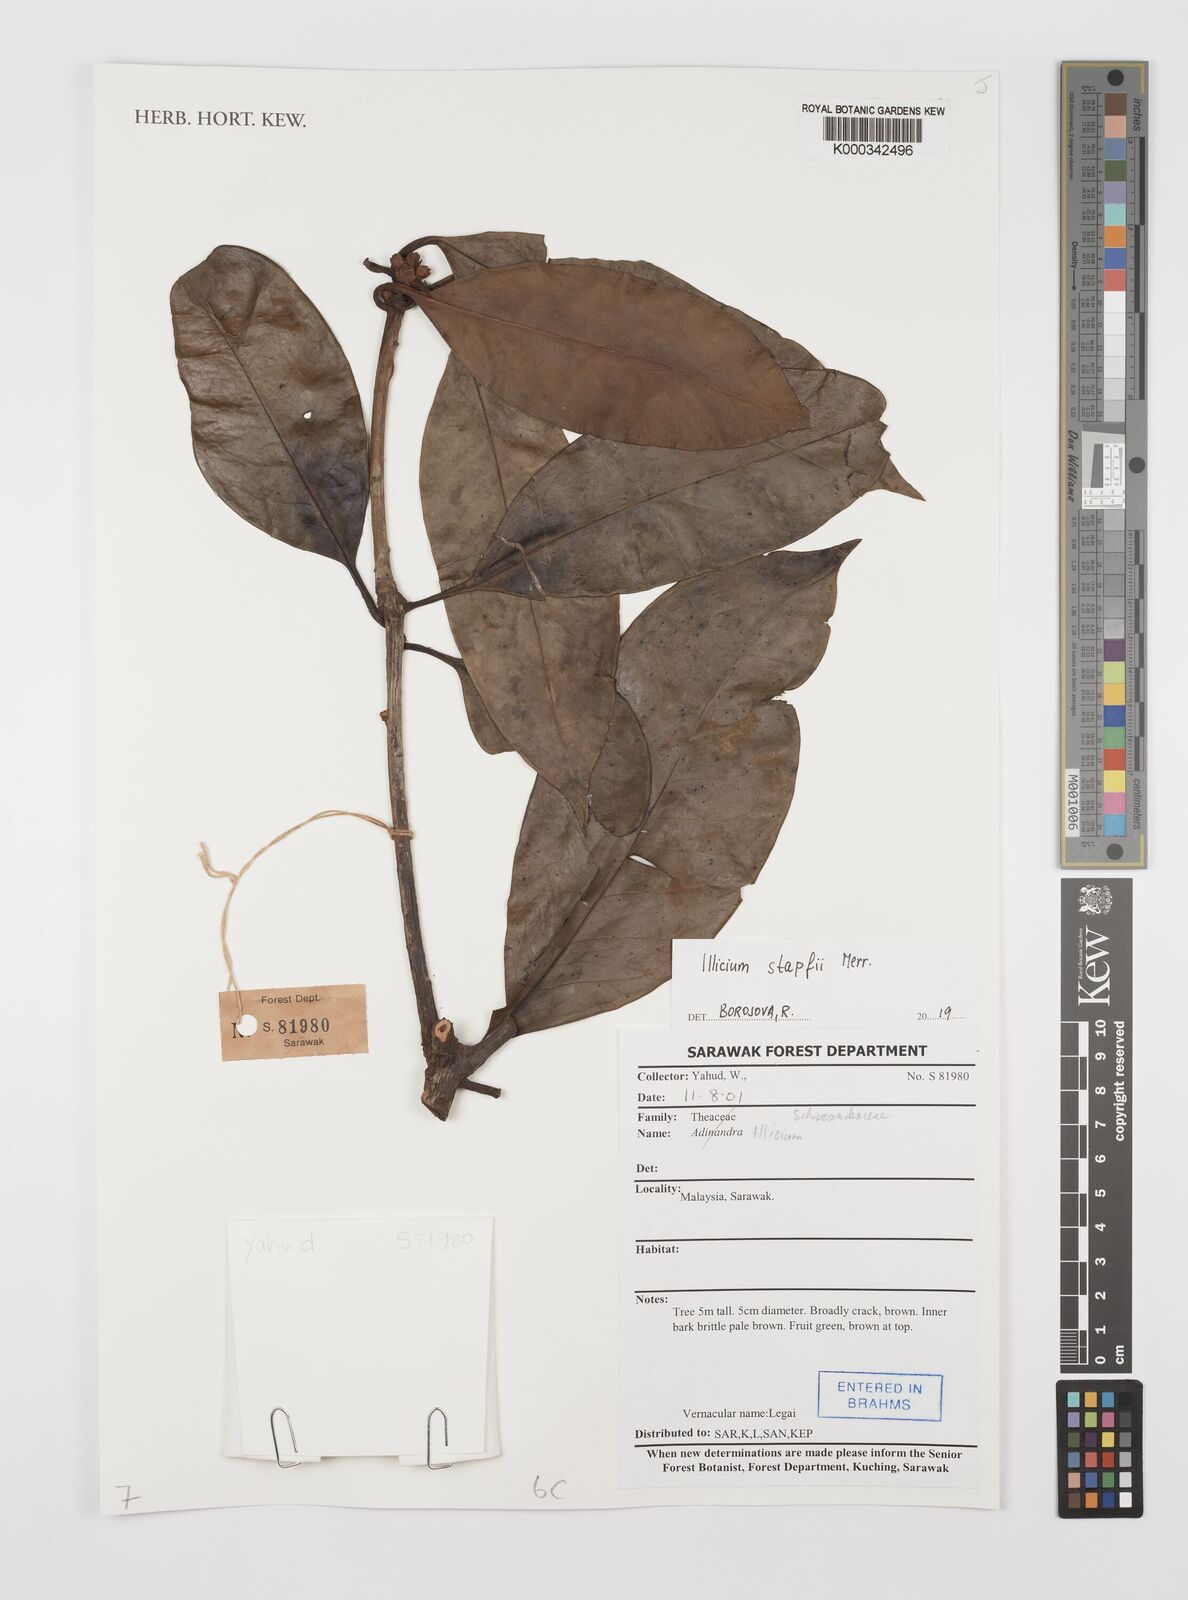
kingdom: Plantae
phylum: Tracheophyta
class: Magnoliopsida
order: Austrobaileyales
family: Schisandraceae
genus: Illicium
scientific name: Illicium stapfii
